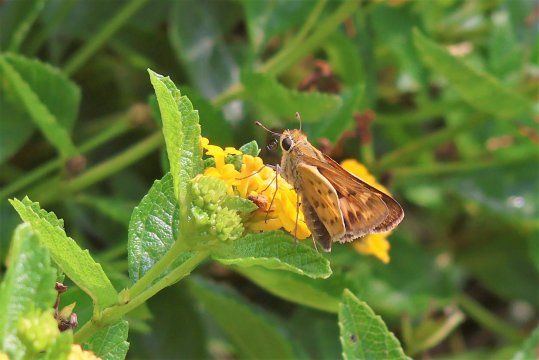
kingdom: Animalia
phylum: Arthropoda
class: Insecta
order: Lepidoptera
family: Hesperiidae
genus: Hylephila
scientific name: Hylephila phyleus
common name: Fiery Skipper
